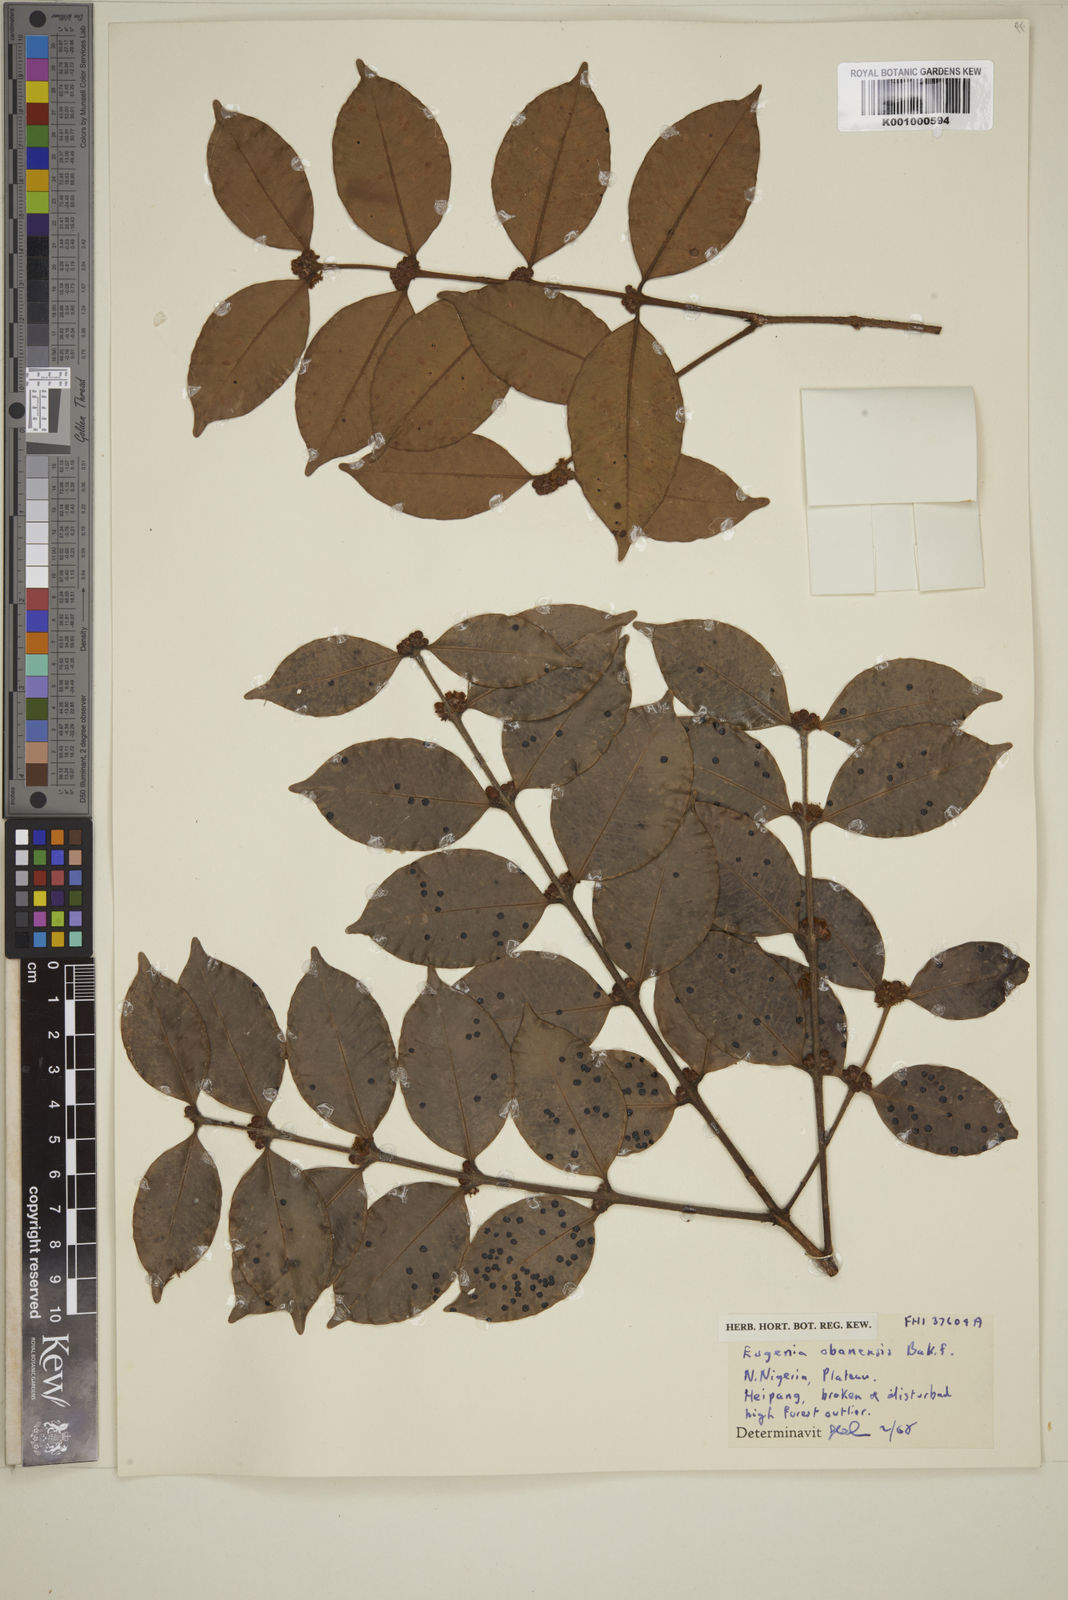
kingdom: Plantae
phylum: Tracheophyta
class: Magnoliopsida
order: Myrtales
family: Myrtaceae
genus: Eugenia
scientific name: Eugenia obanensis
